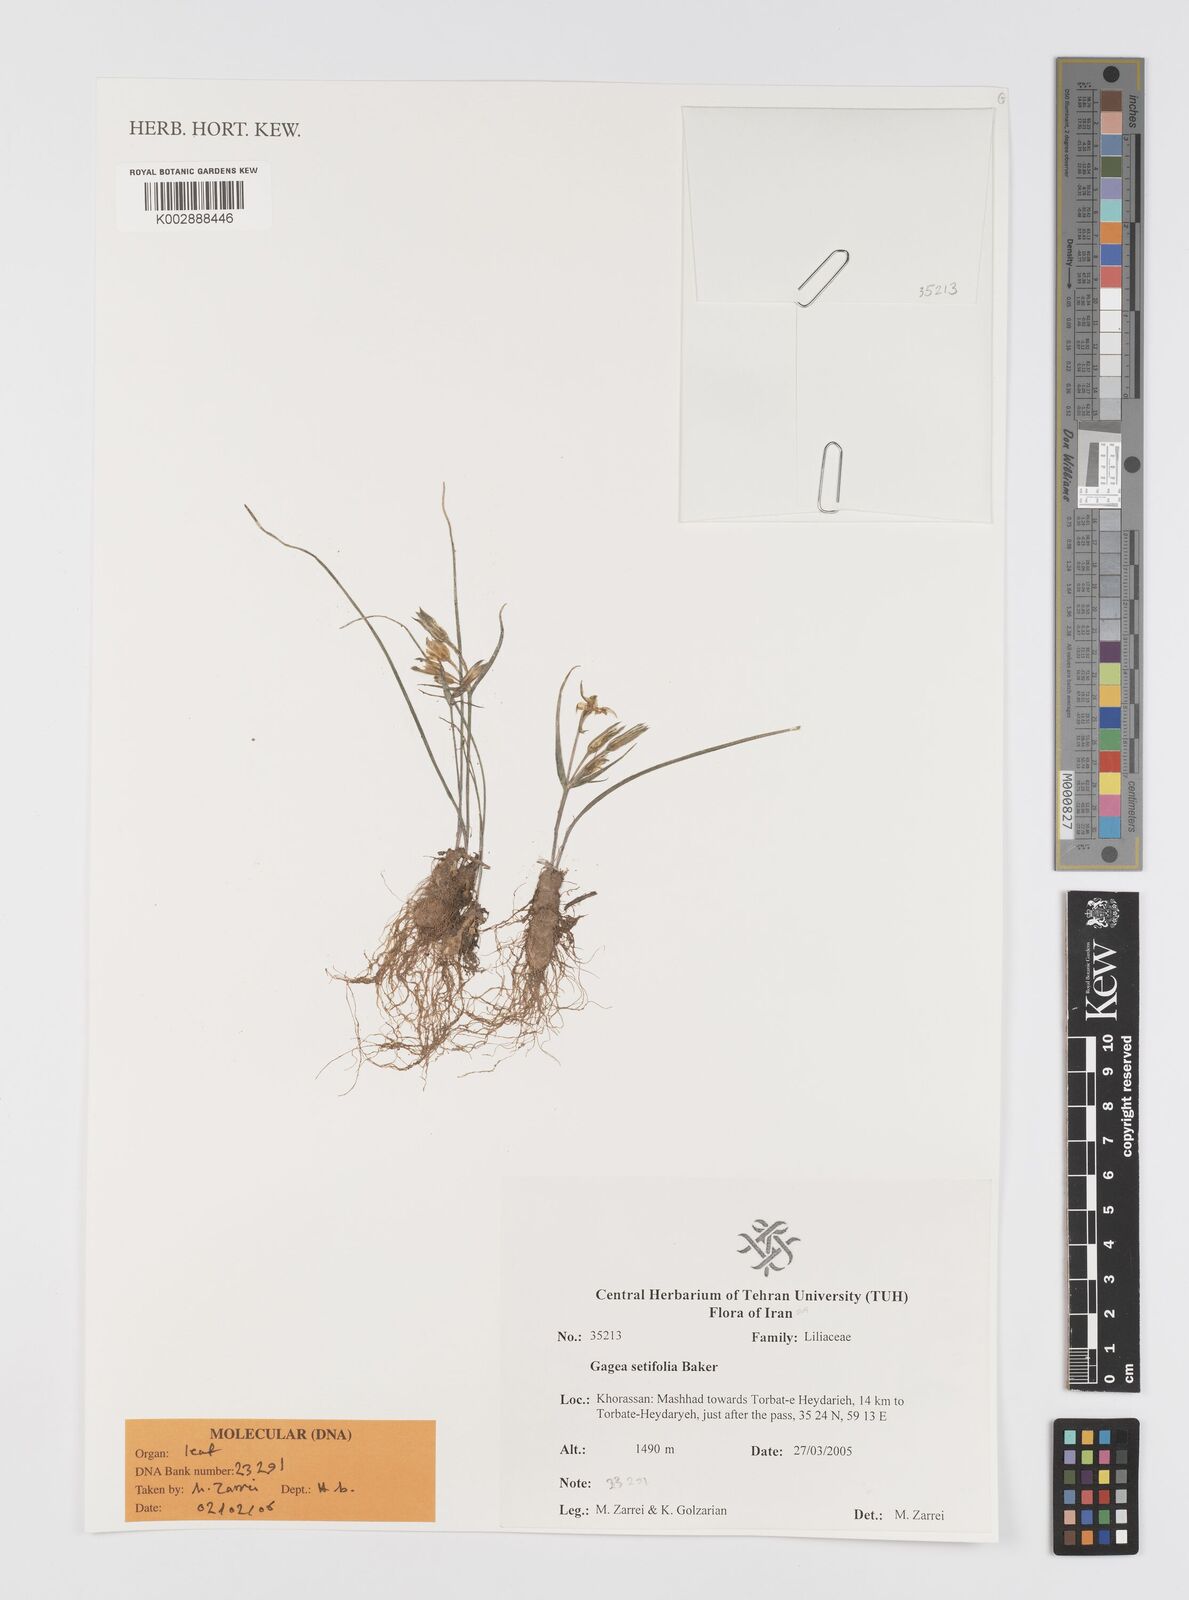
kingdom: Plantae
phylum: Tracheophyta
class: Liliopsida
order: Liliales
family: Liliaceae
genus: Gagea
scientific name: Gagea setifolia
